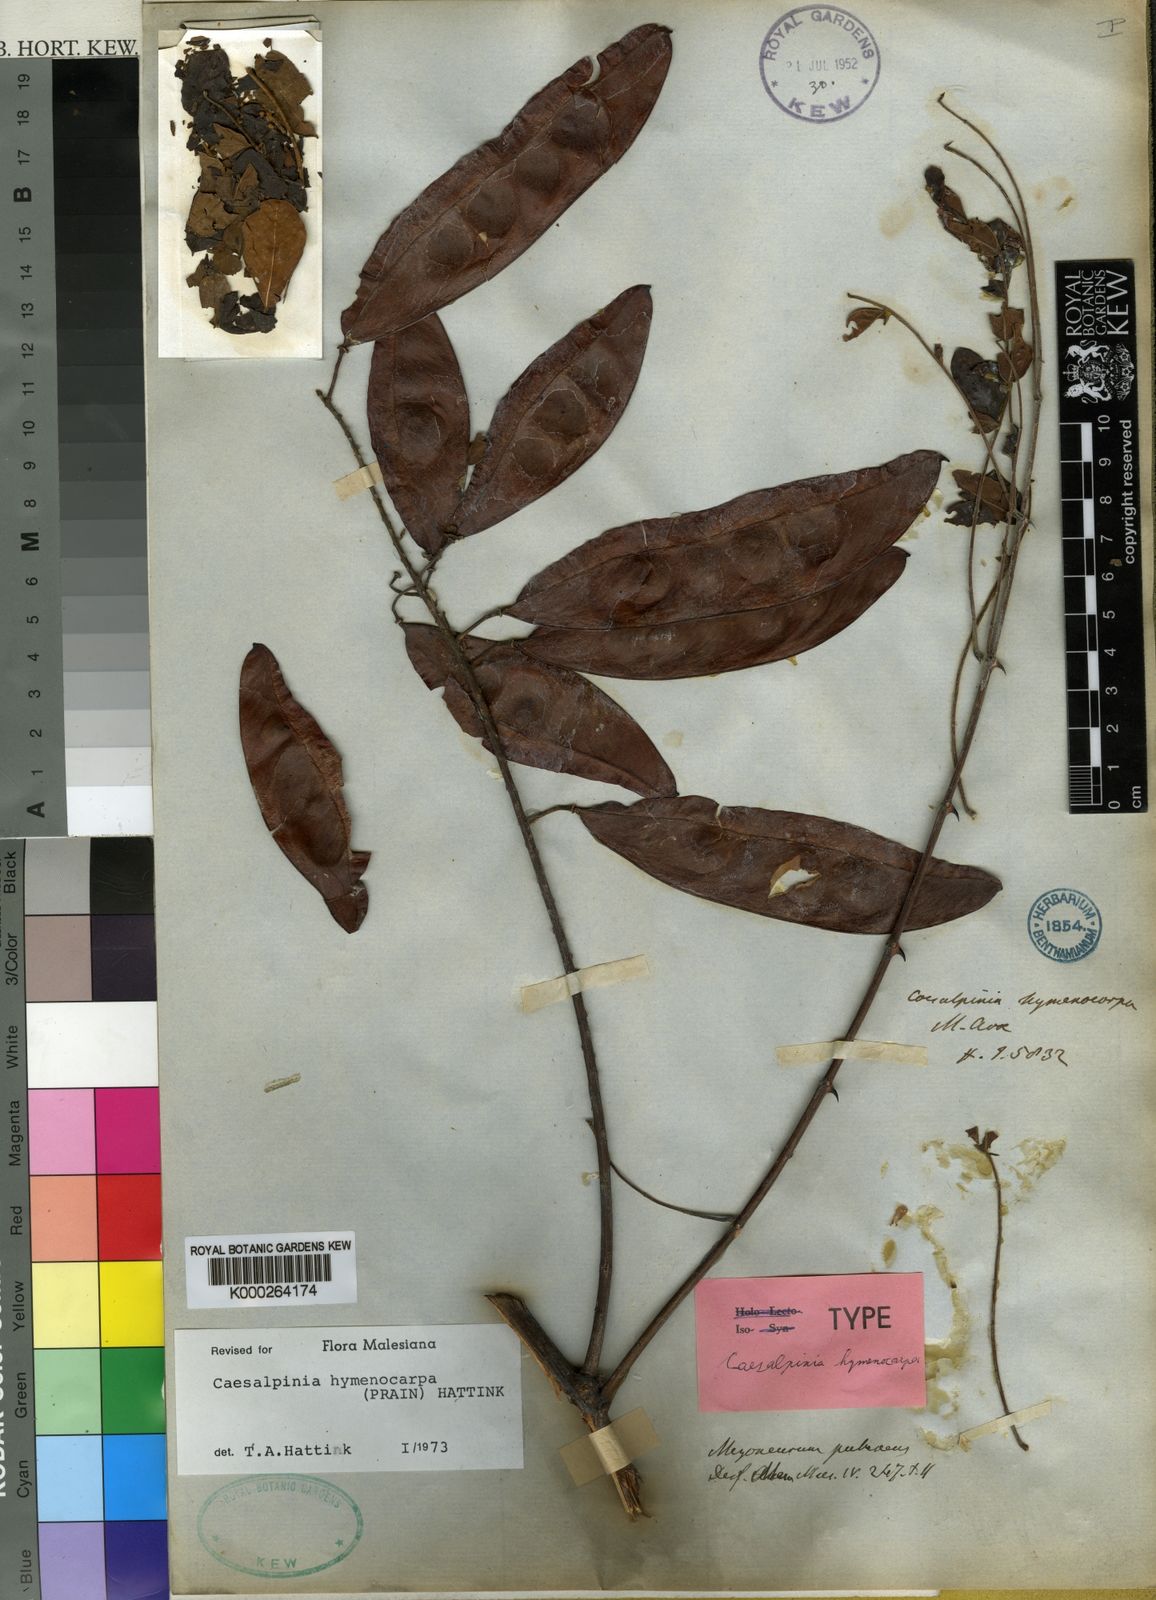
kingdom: Plantae
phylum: Tracheophyta
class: Magnoliopsida
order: Fabales
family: Fabaceae
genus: Mezoneuron
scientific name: Mezoneuron hymenocarpum
